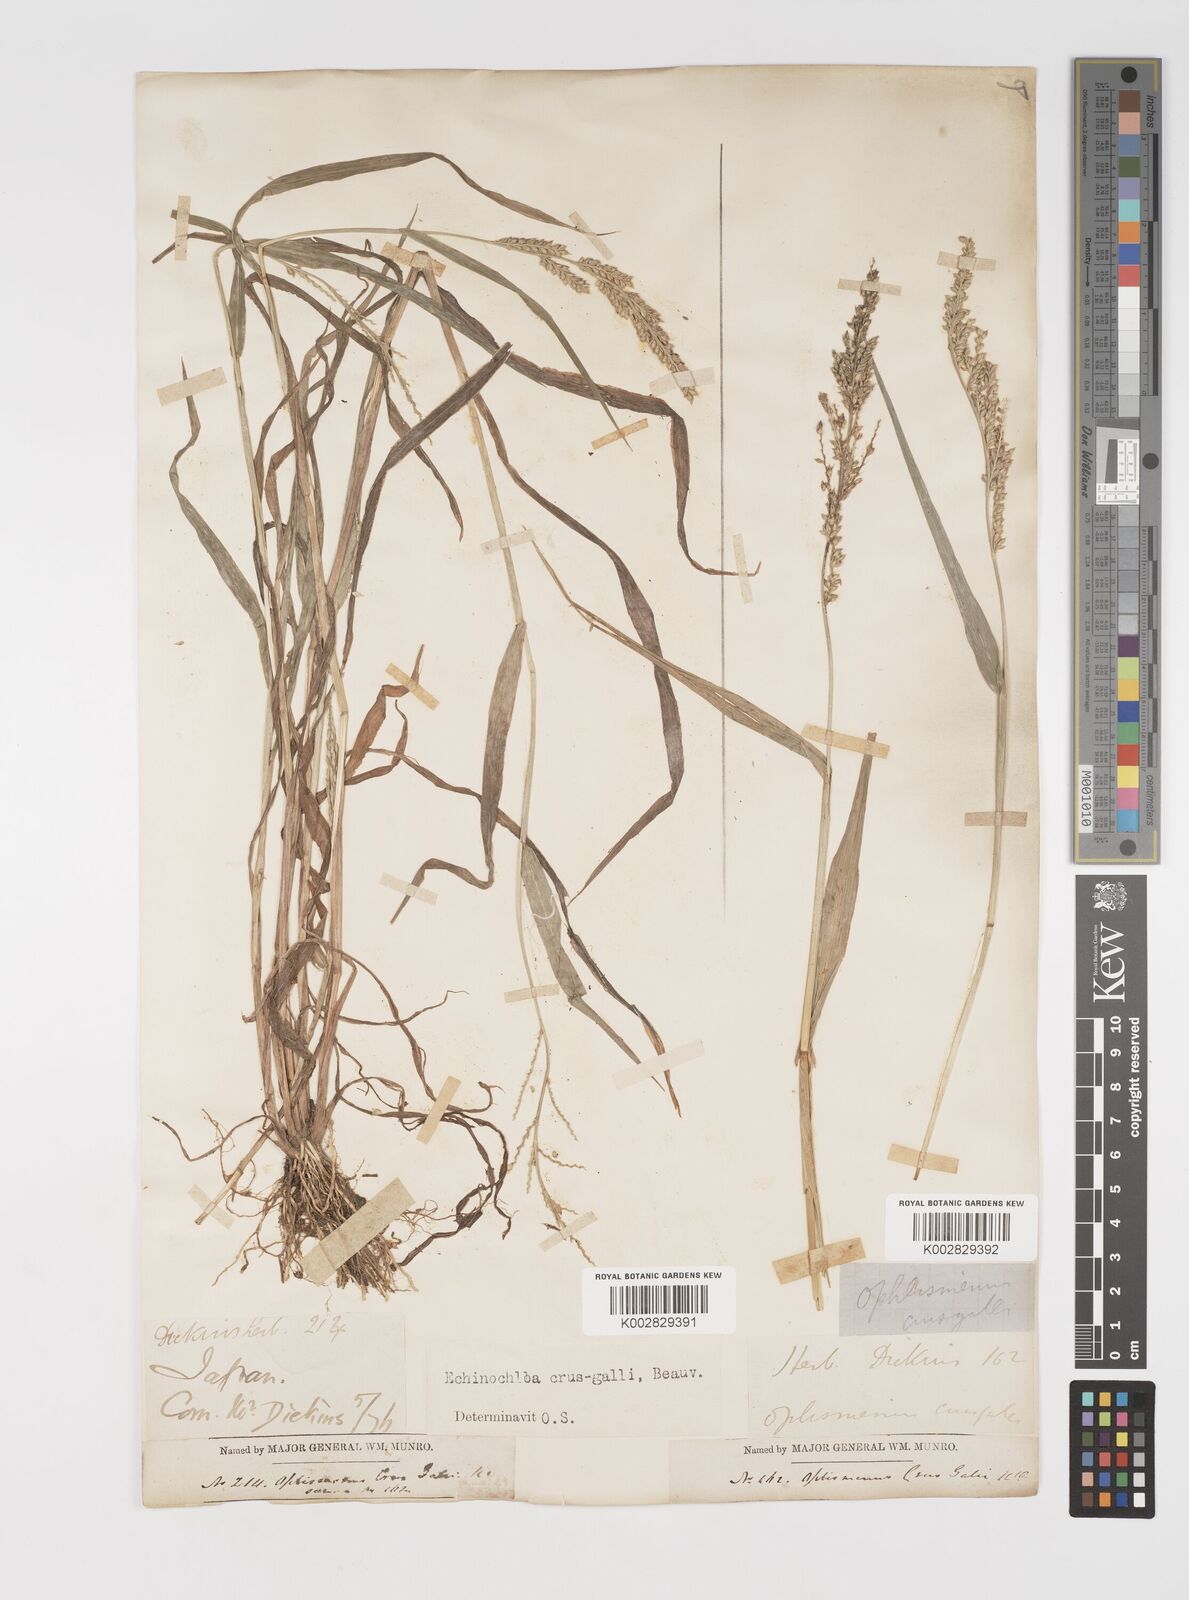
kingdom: Plantae
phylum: Tracheophyta
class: Liliopsida
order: Poales
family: Poaceae
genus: Echinochloa
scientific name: Echinochloa crus-galli
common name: Cockspur
